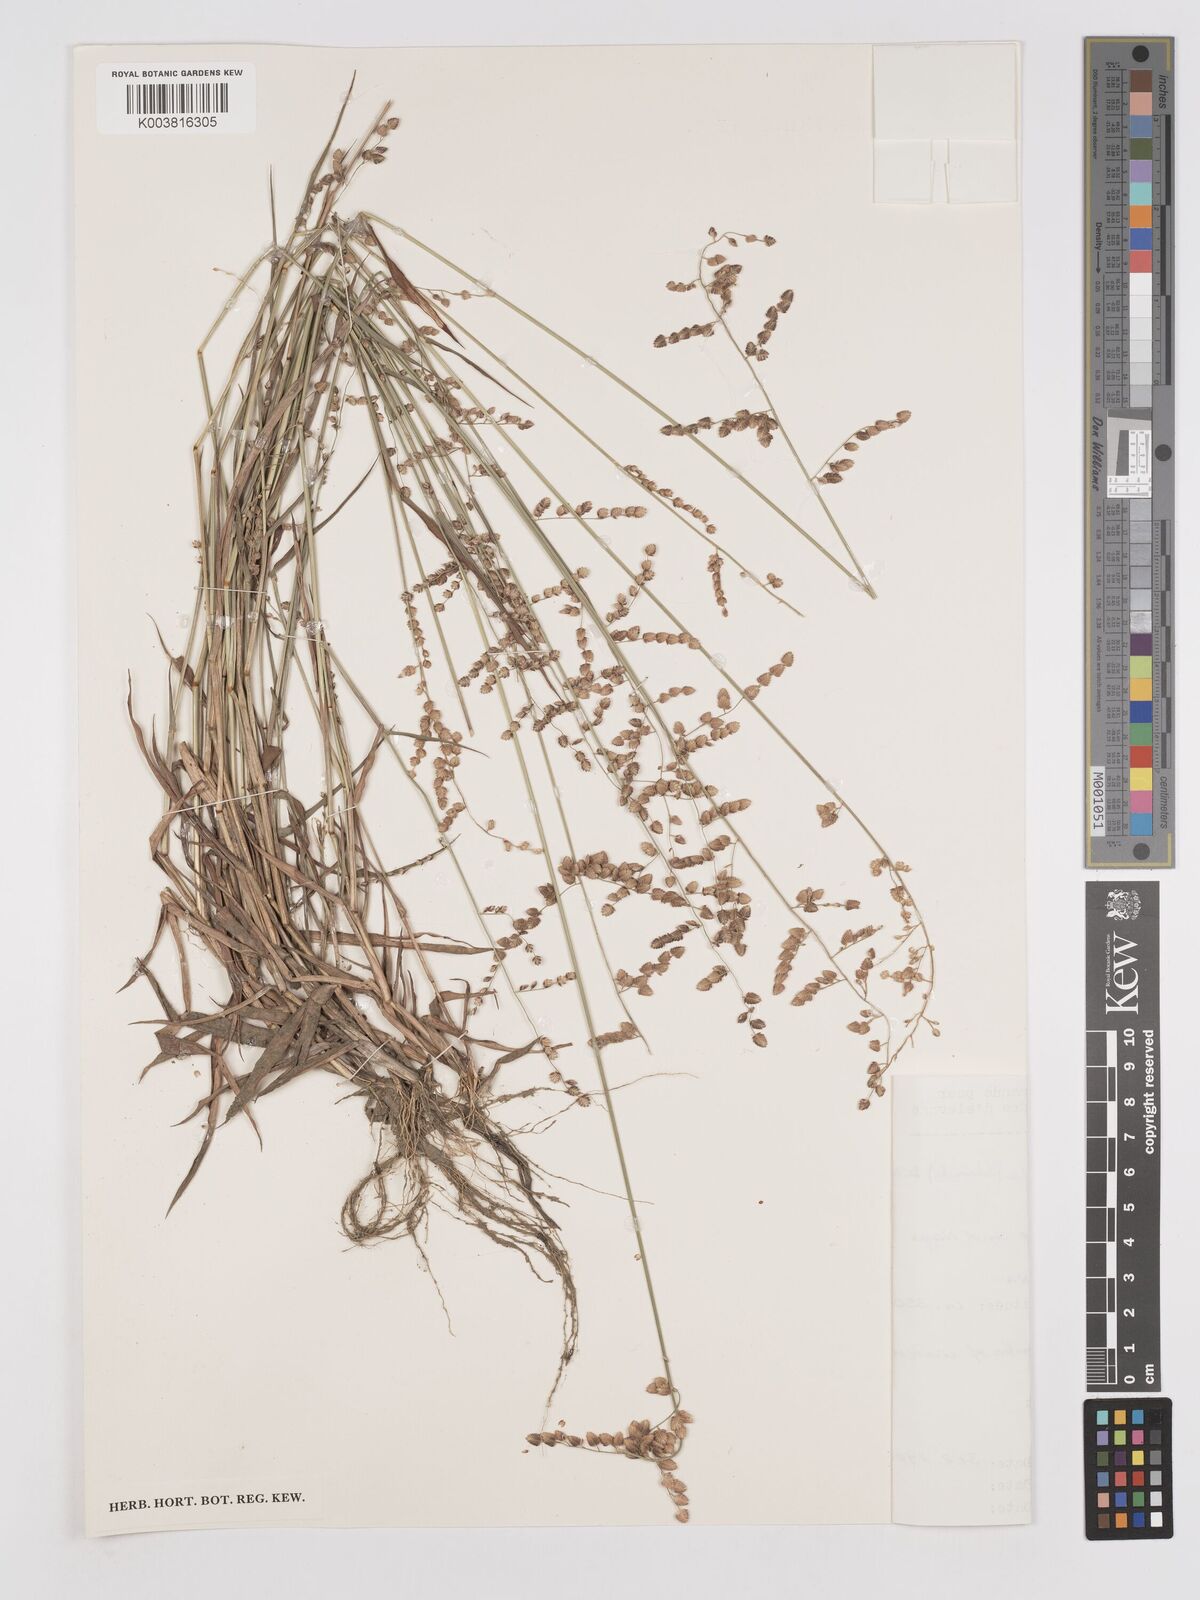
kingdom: Plantae
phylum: Tracheophyta
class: Liliopsida
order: Poales
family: Poaceae
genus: Eragrostis
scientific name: Eragrostis turgida
